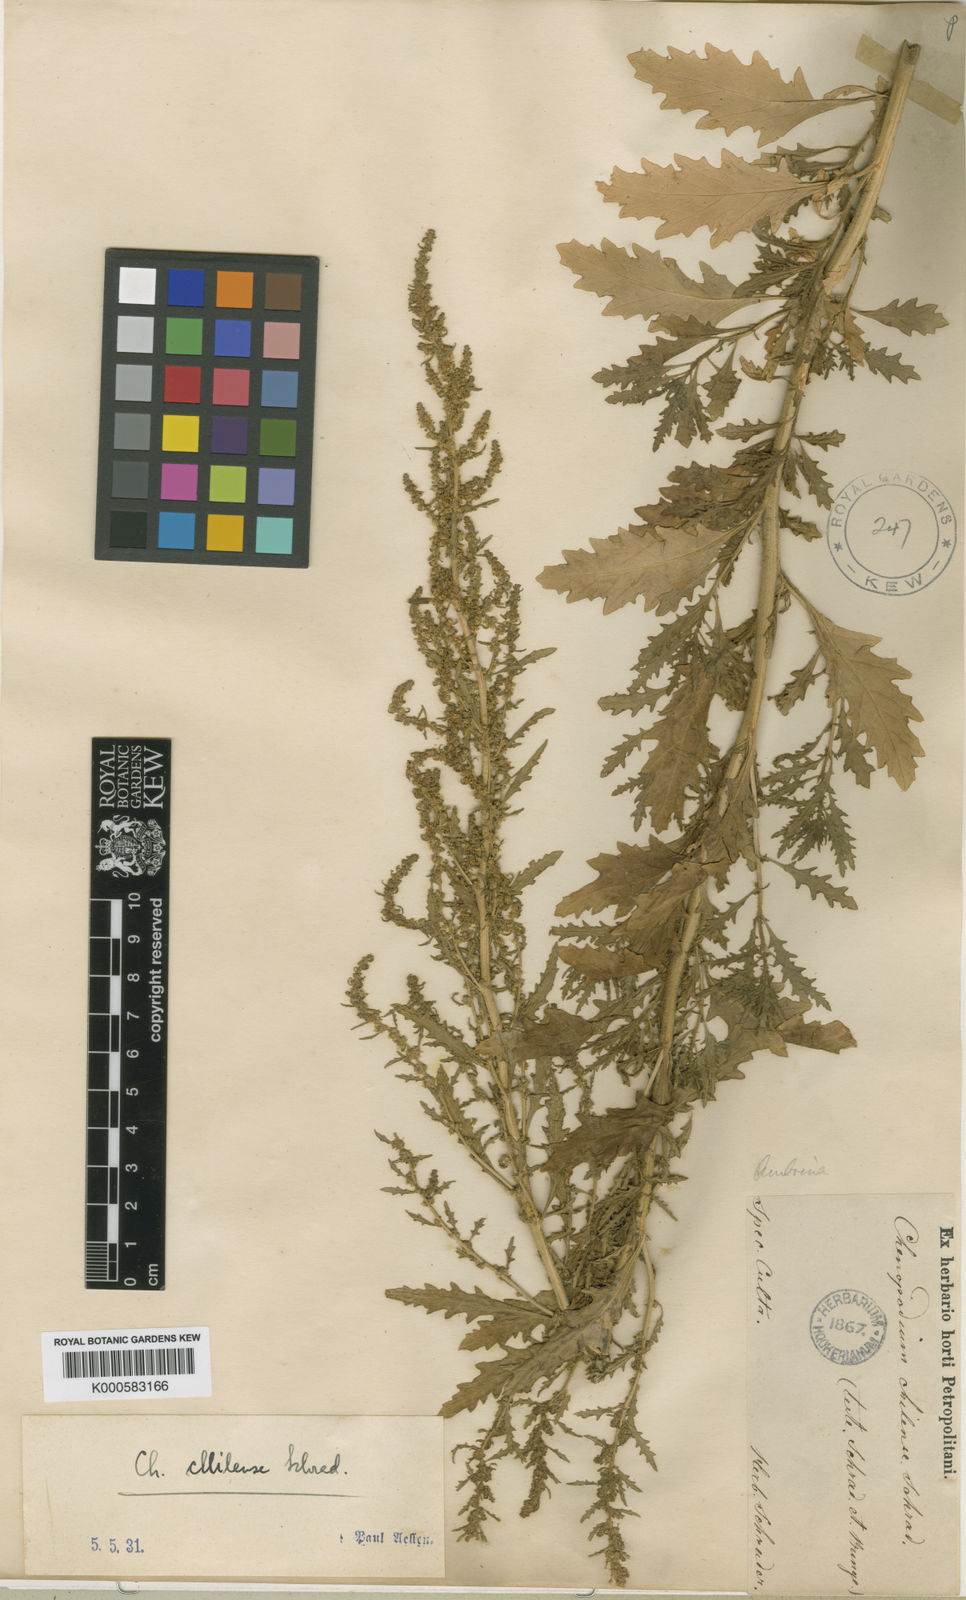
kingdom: Plantae
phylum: Tracheophyta
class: Magnoliopsida
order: Caryophyllales
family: Amaranthaceae
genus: Dysphania
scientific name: Dysphania ambrosioides
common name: Wormseed
